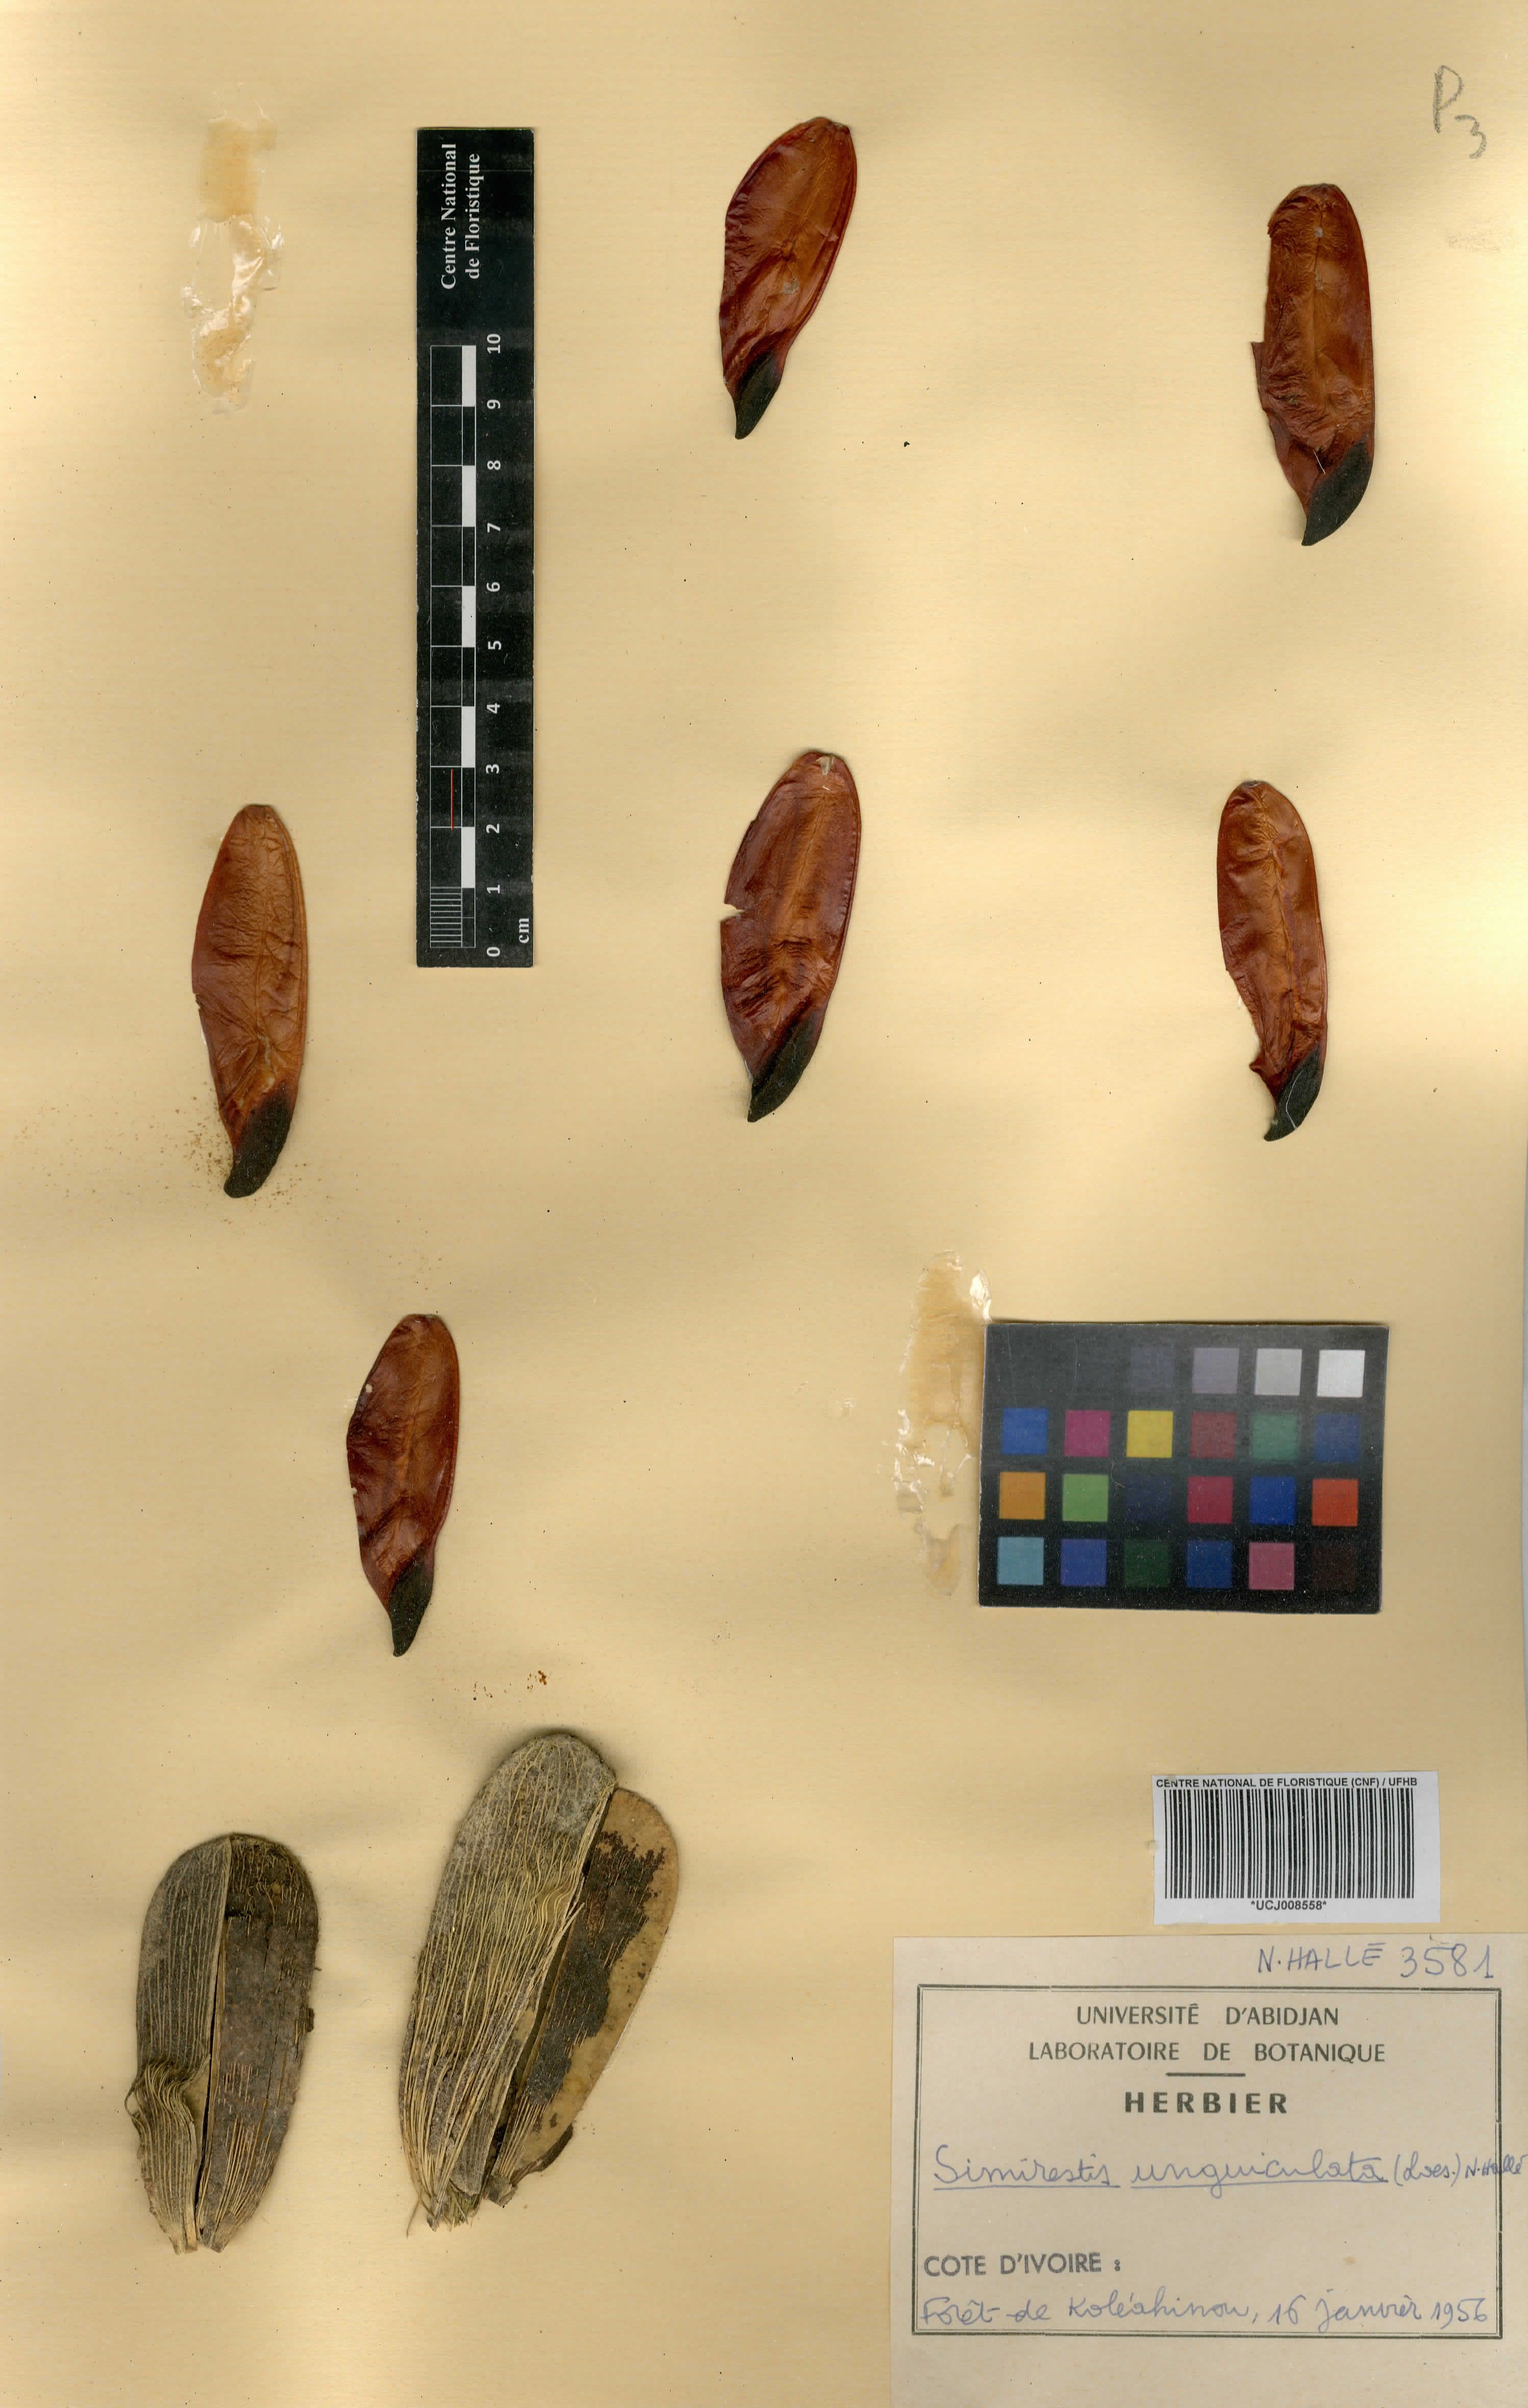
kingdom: Plantae
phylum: Tracheophyta
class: Magnoliopsida
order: Celastrales
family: Celastraceae
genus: Pristimera
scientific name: Pristimera unguiculata
